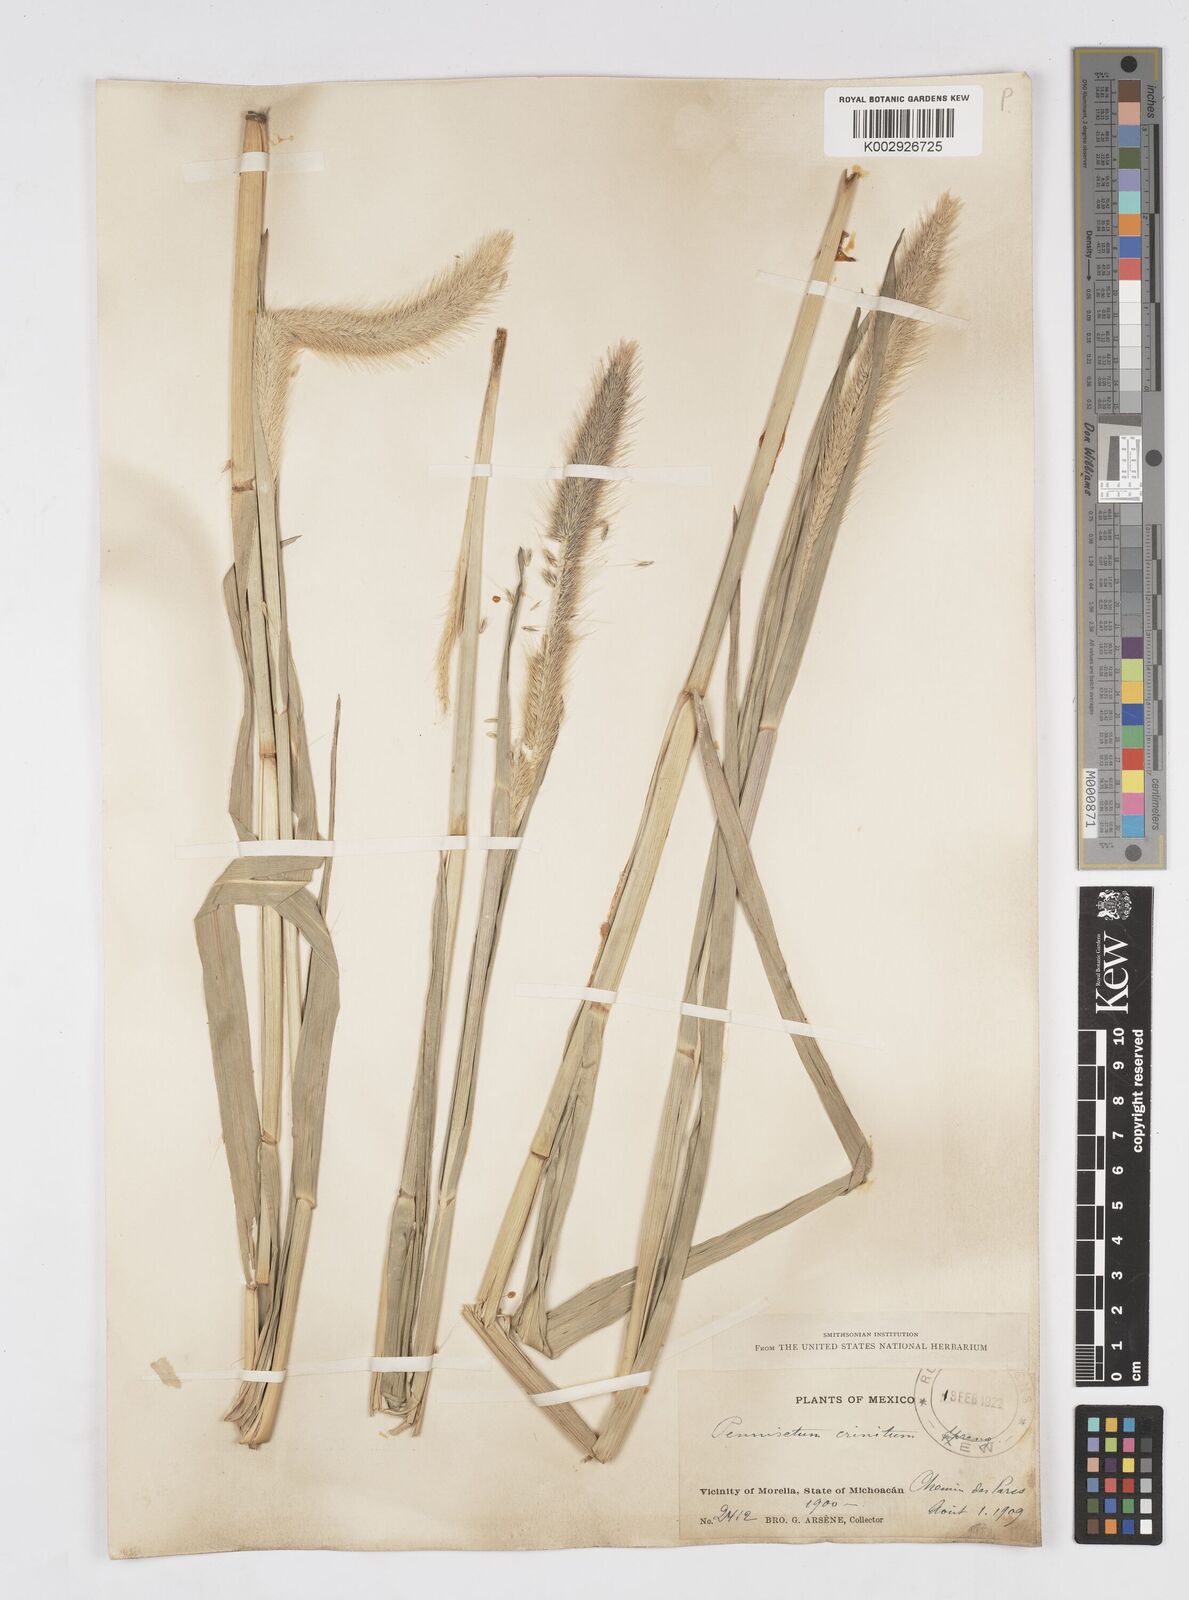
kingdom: Plantae
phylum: Tracheophyta
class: Liliopsida
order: Poales
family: Poaceae
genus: Cenchrus
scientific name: Cenchrus michoacanus
